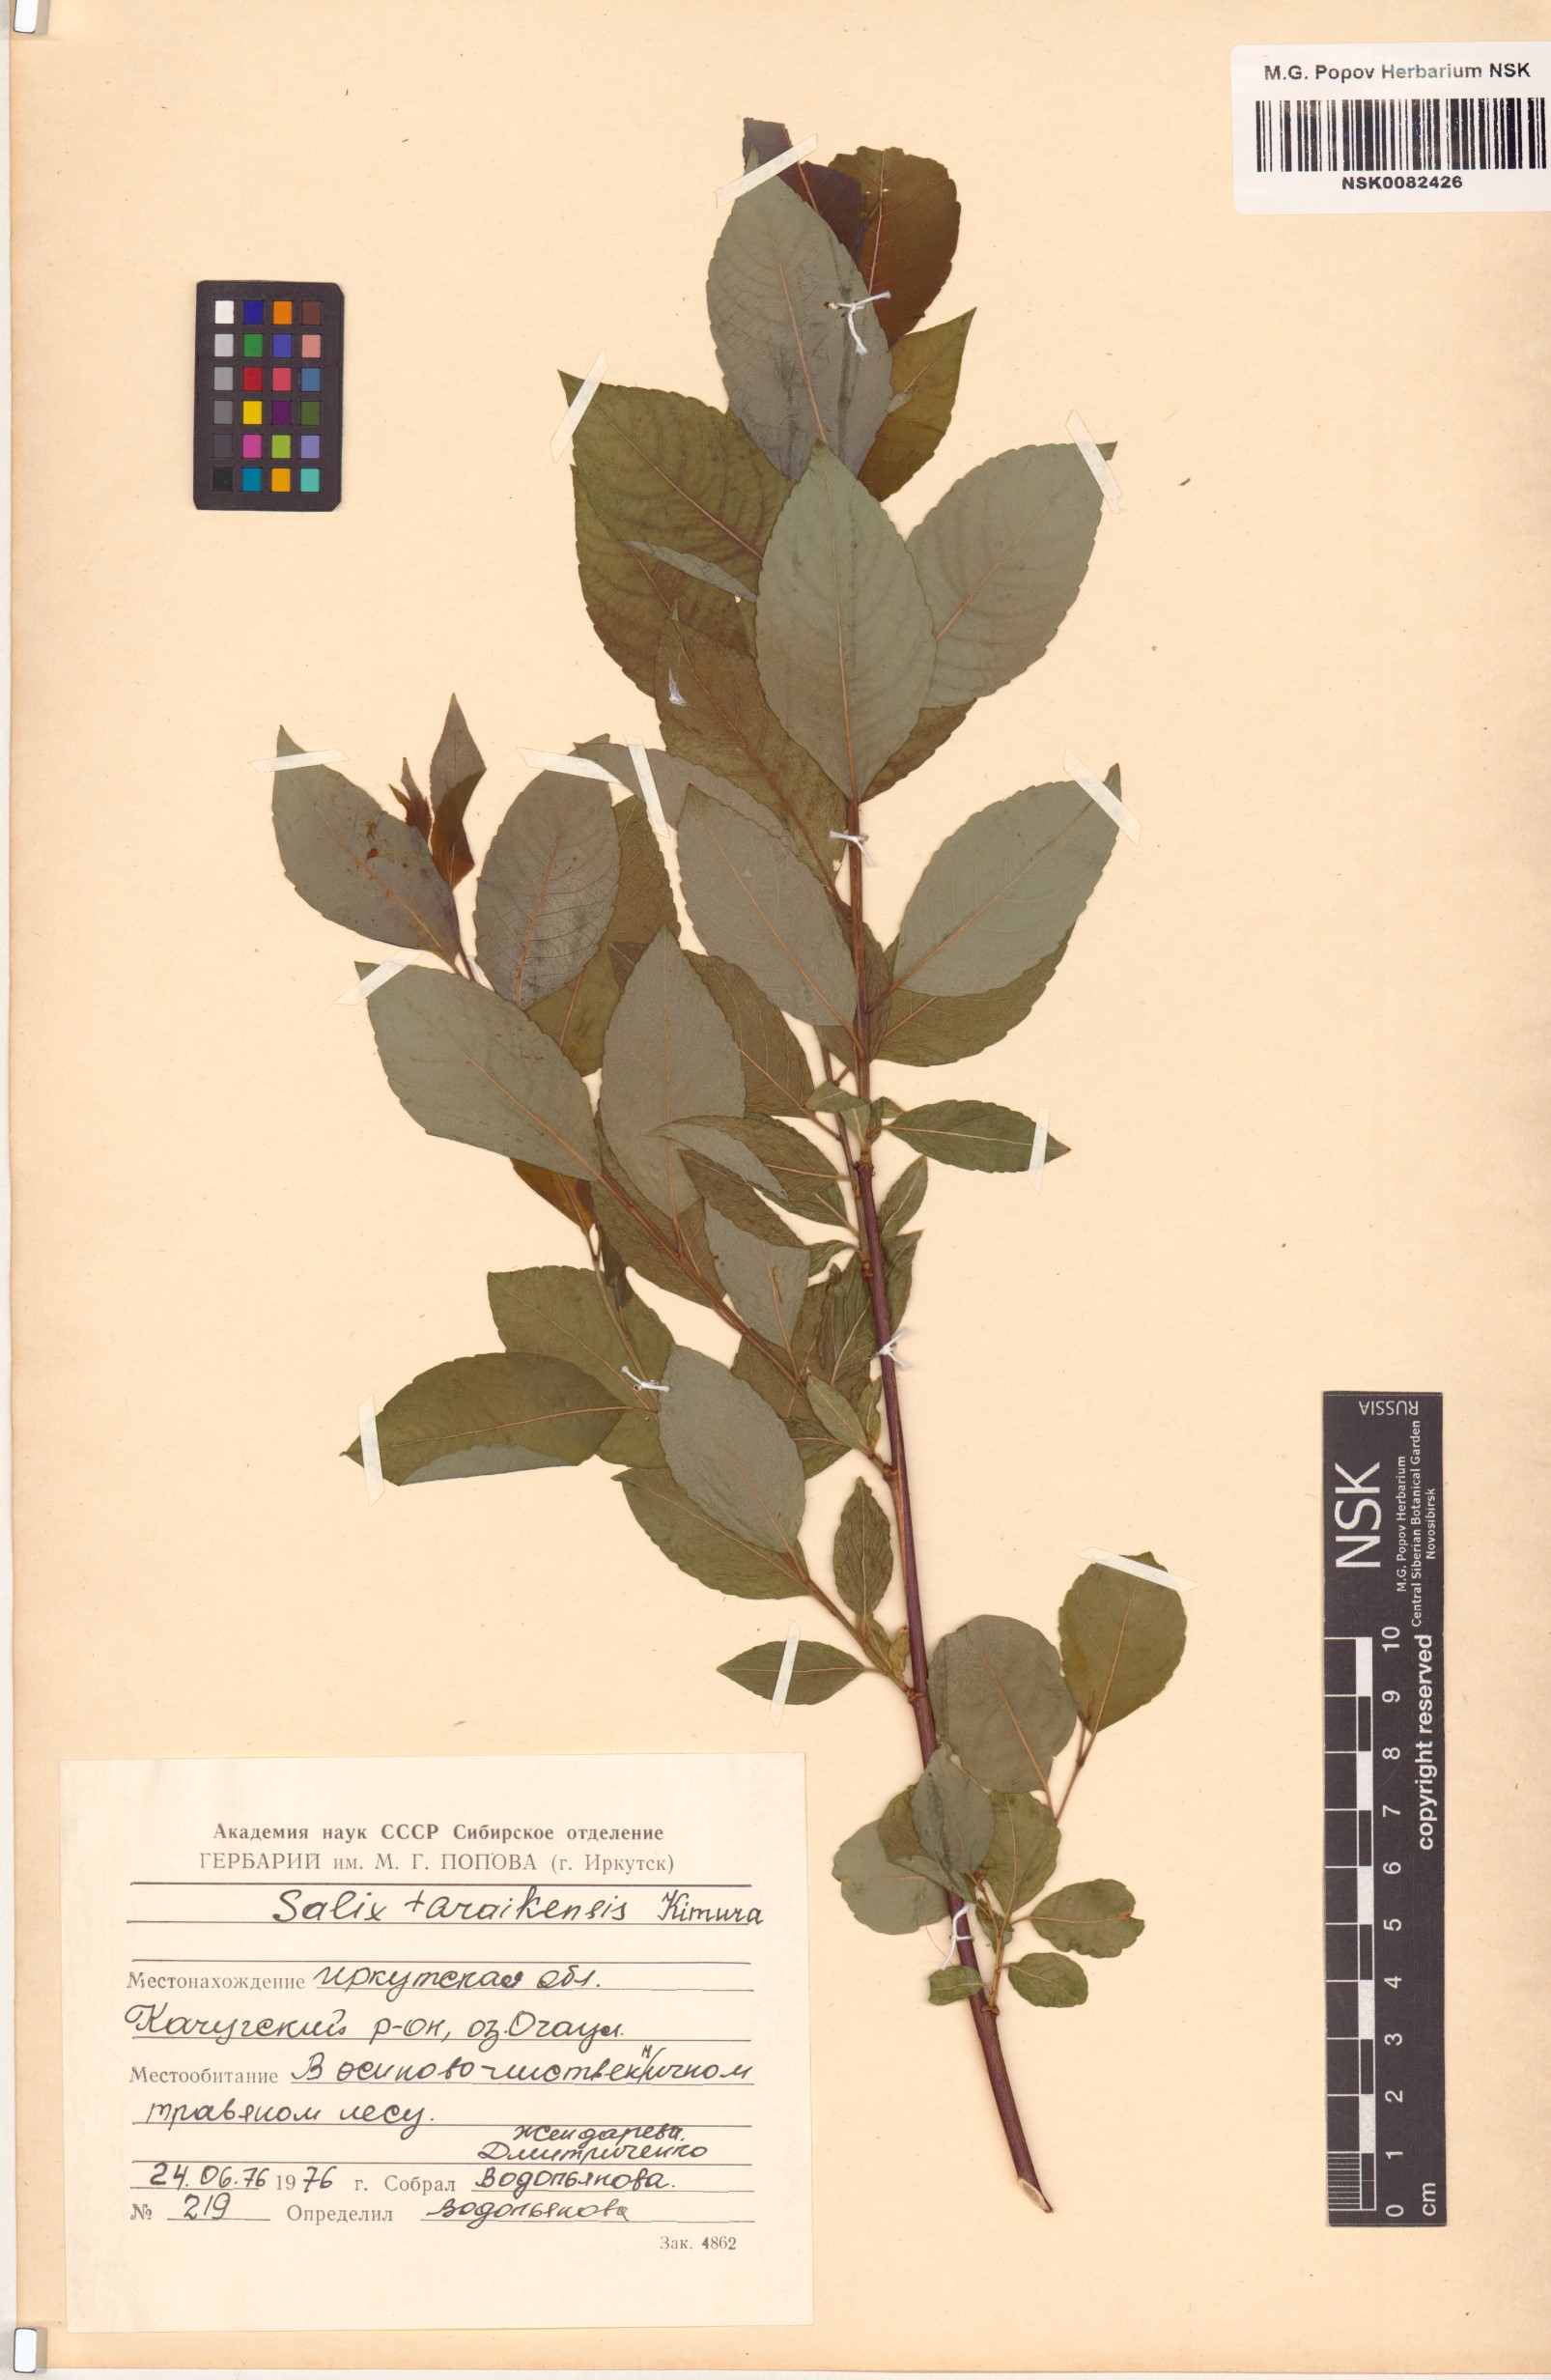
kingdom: Plantae
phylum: Tracheophyta
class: Magnoliopsida
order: Malpighiales
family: Salicaceae
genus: Salix
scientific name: Salix taraikensis
